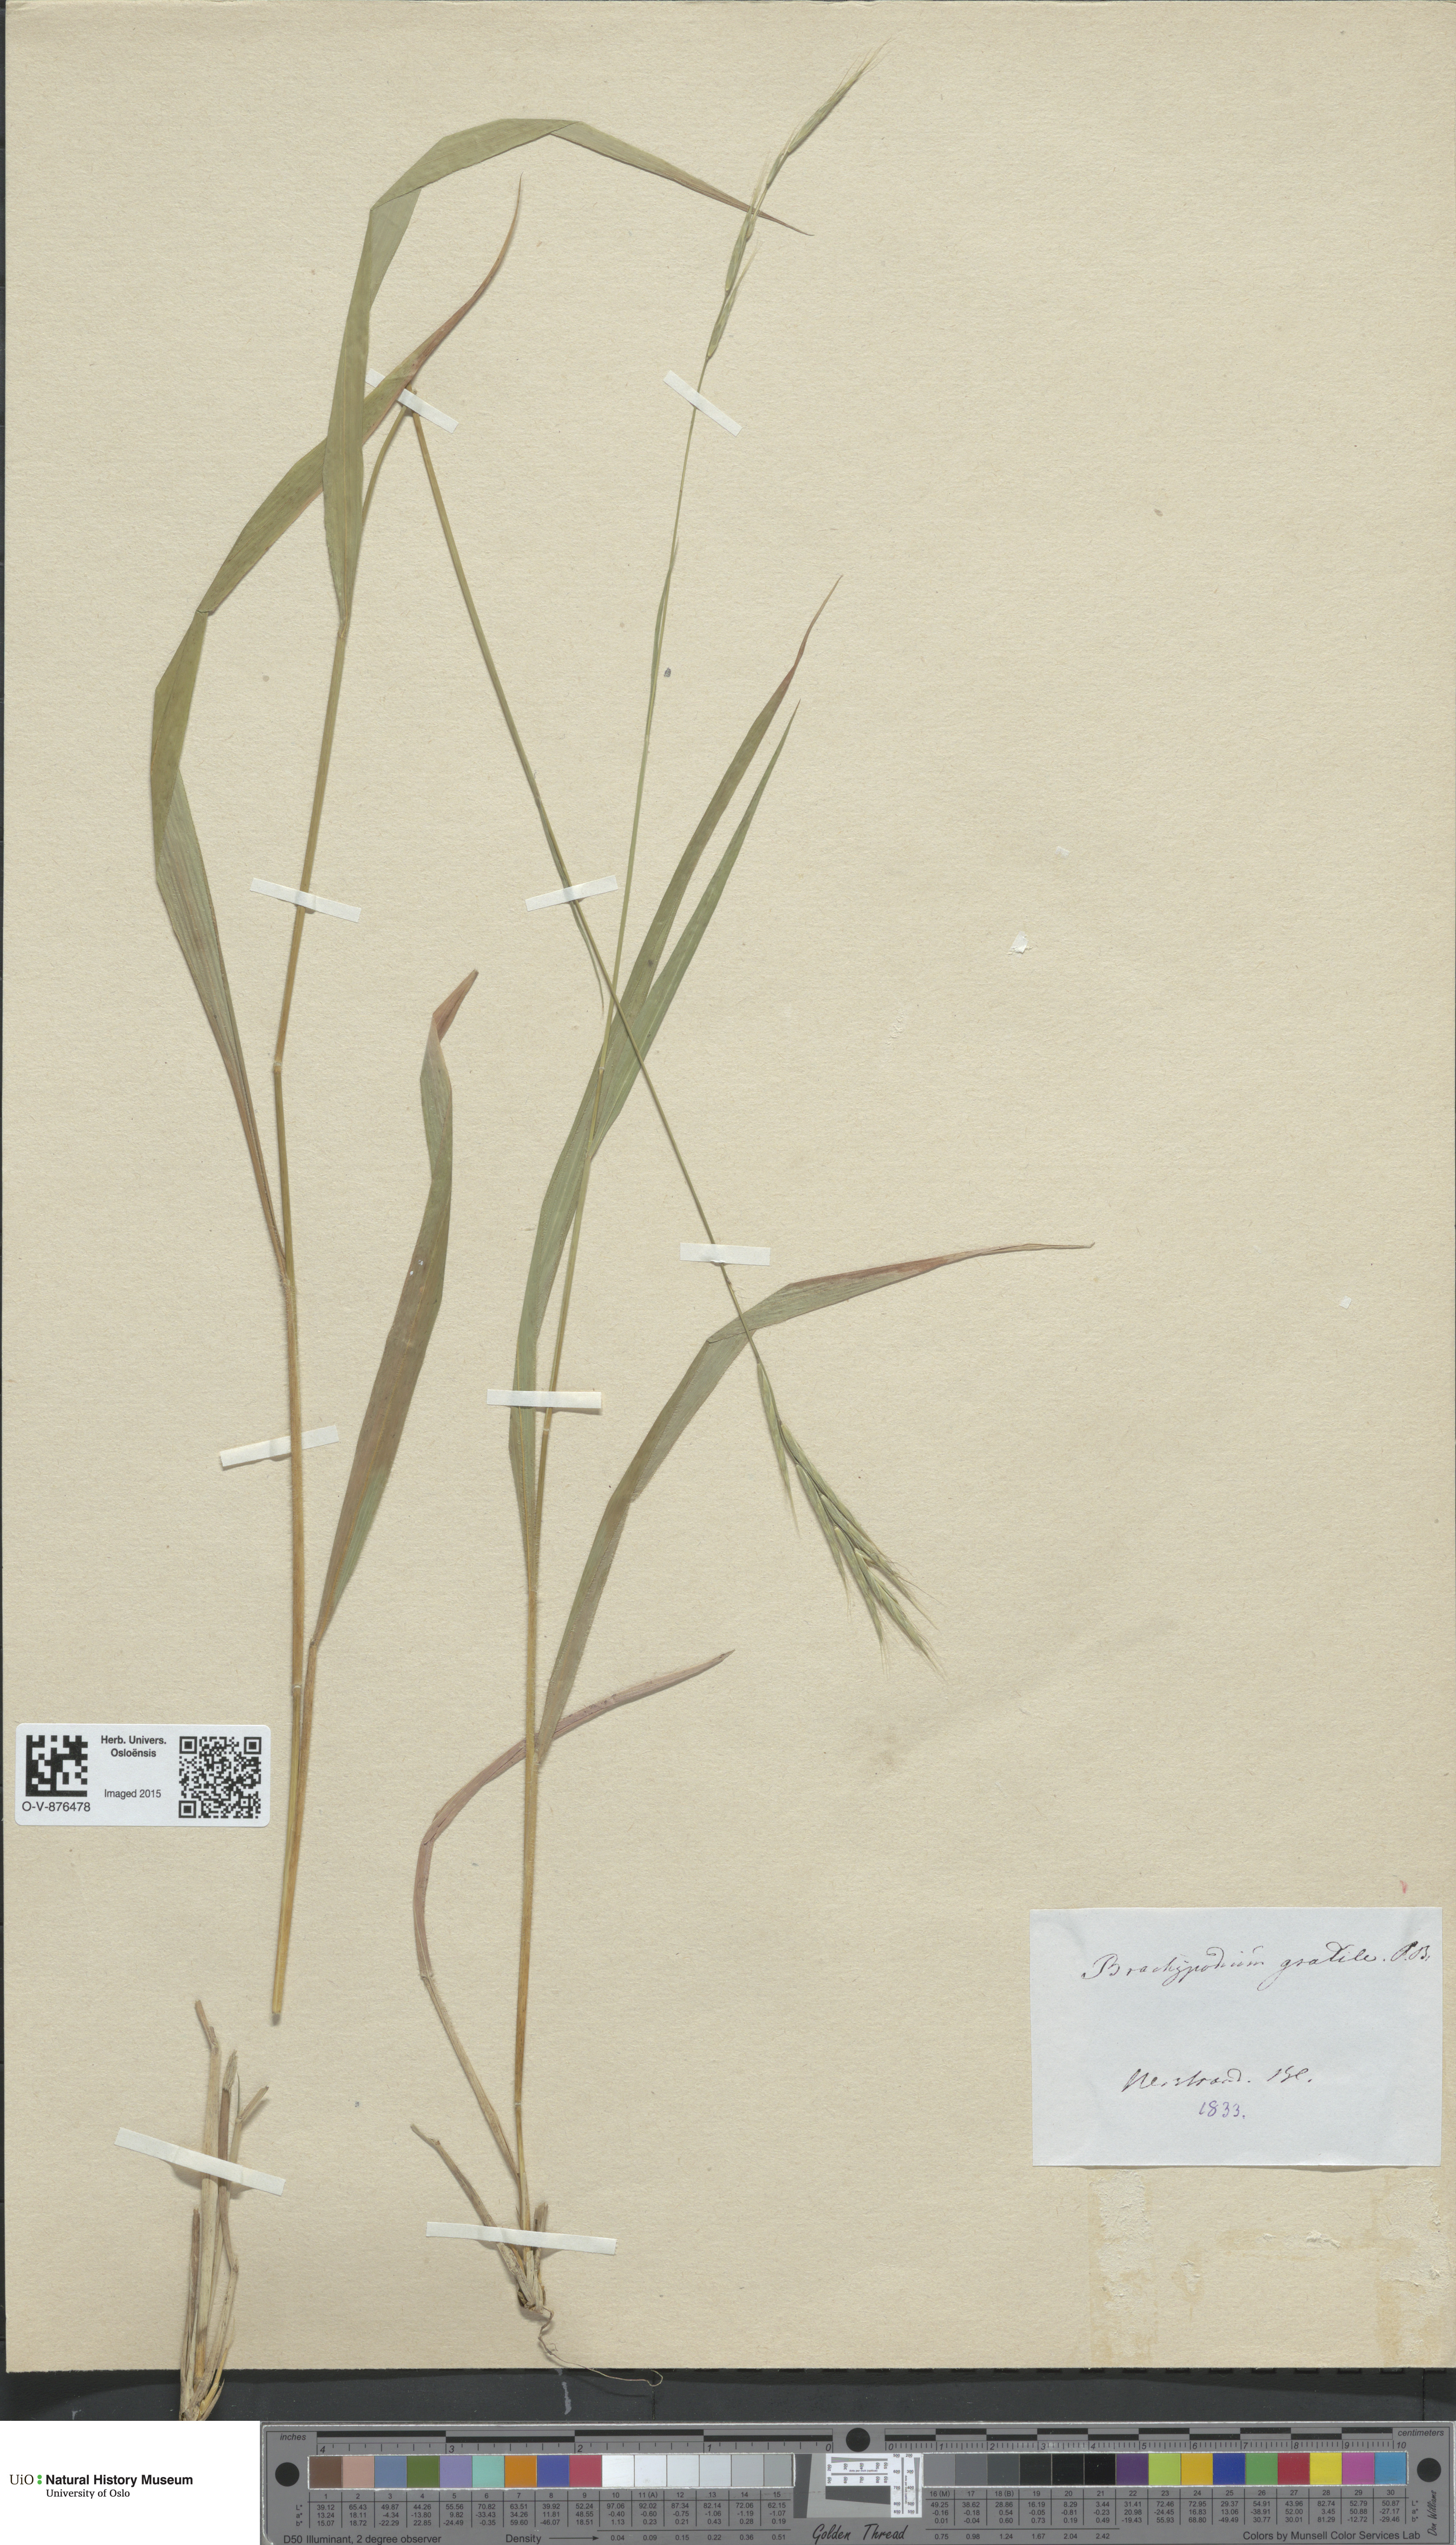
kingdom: Plantae
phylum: Tracheophyta
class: Liliopsida
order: Poales
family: Poaceae
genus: Brachypodium
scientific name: Brachypodium sylvaticum
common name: False-brome
